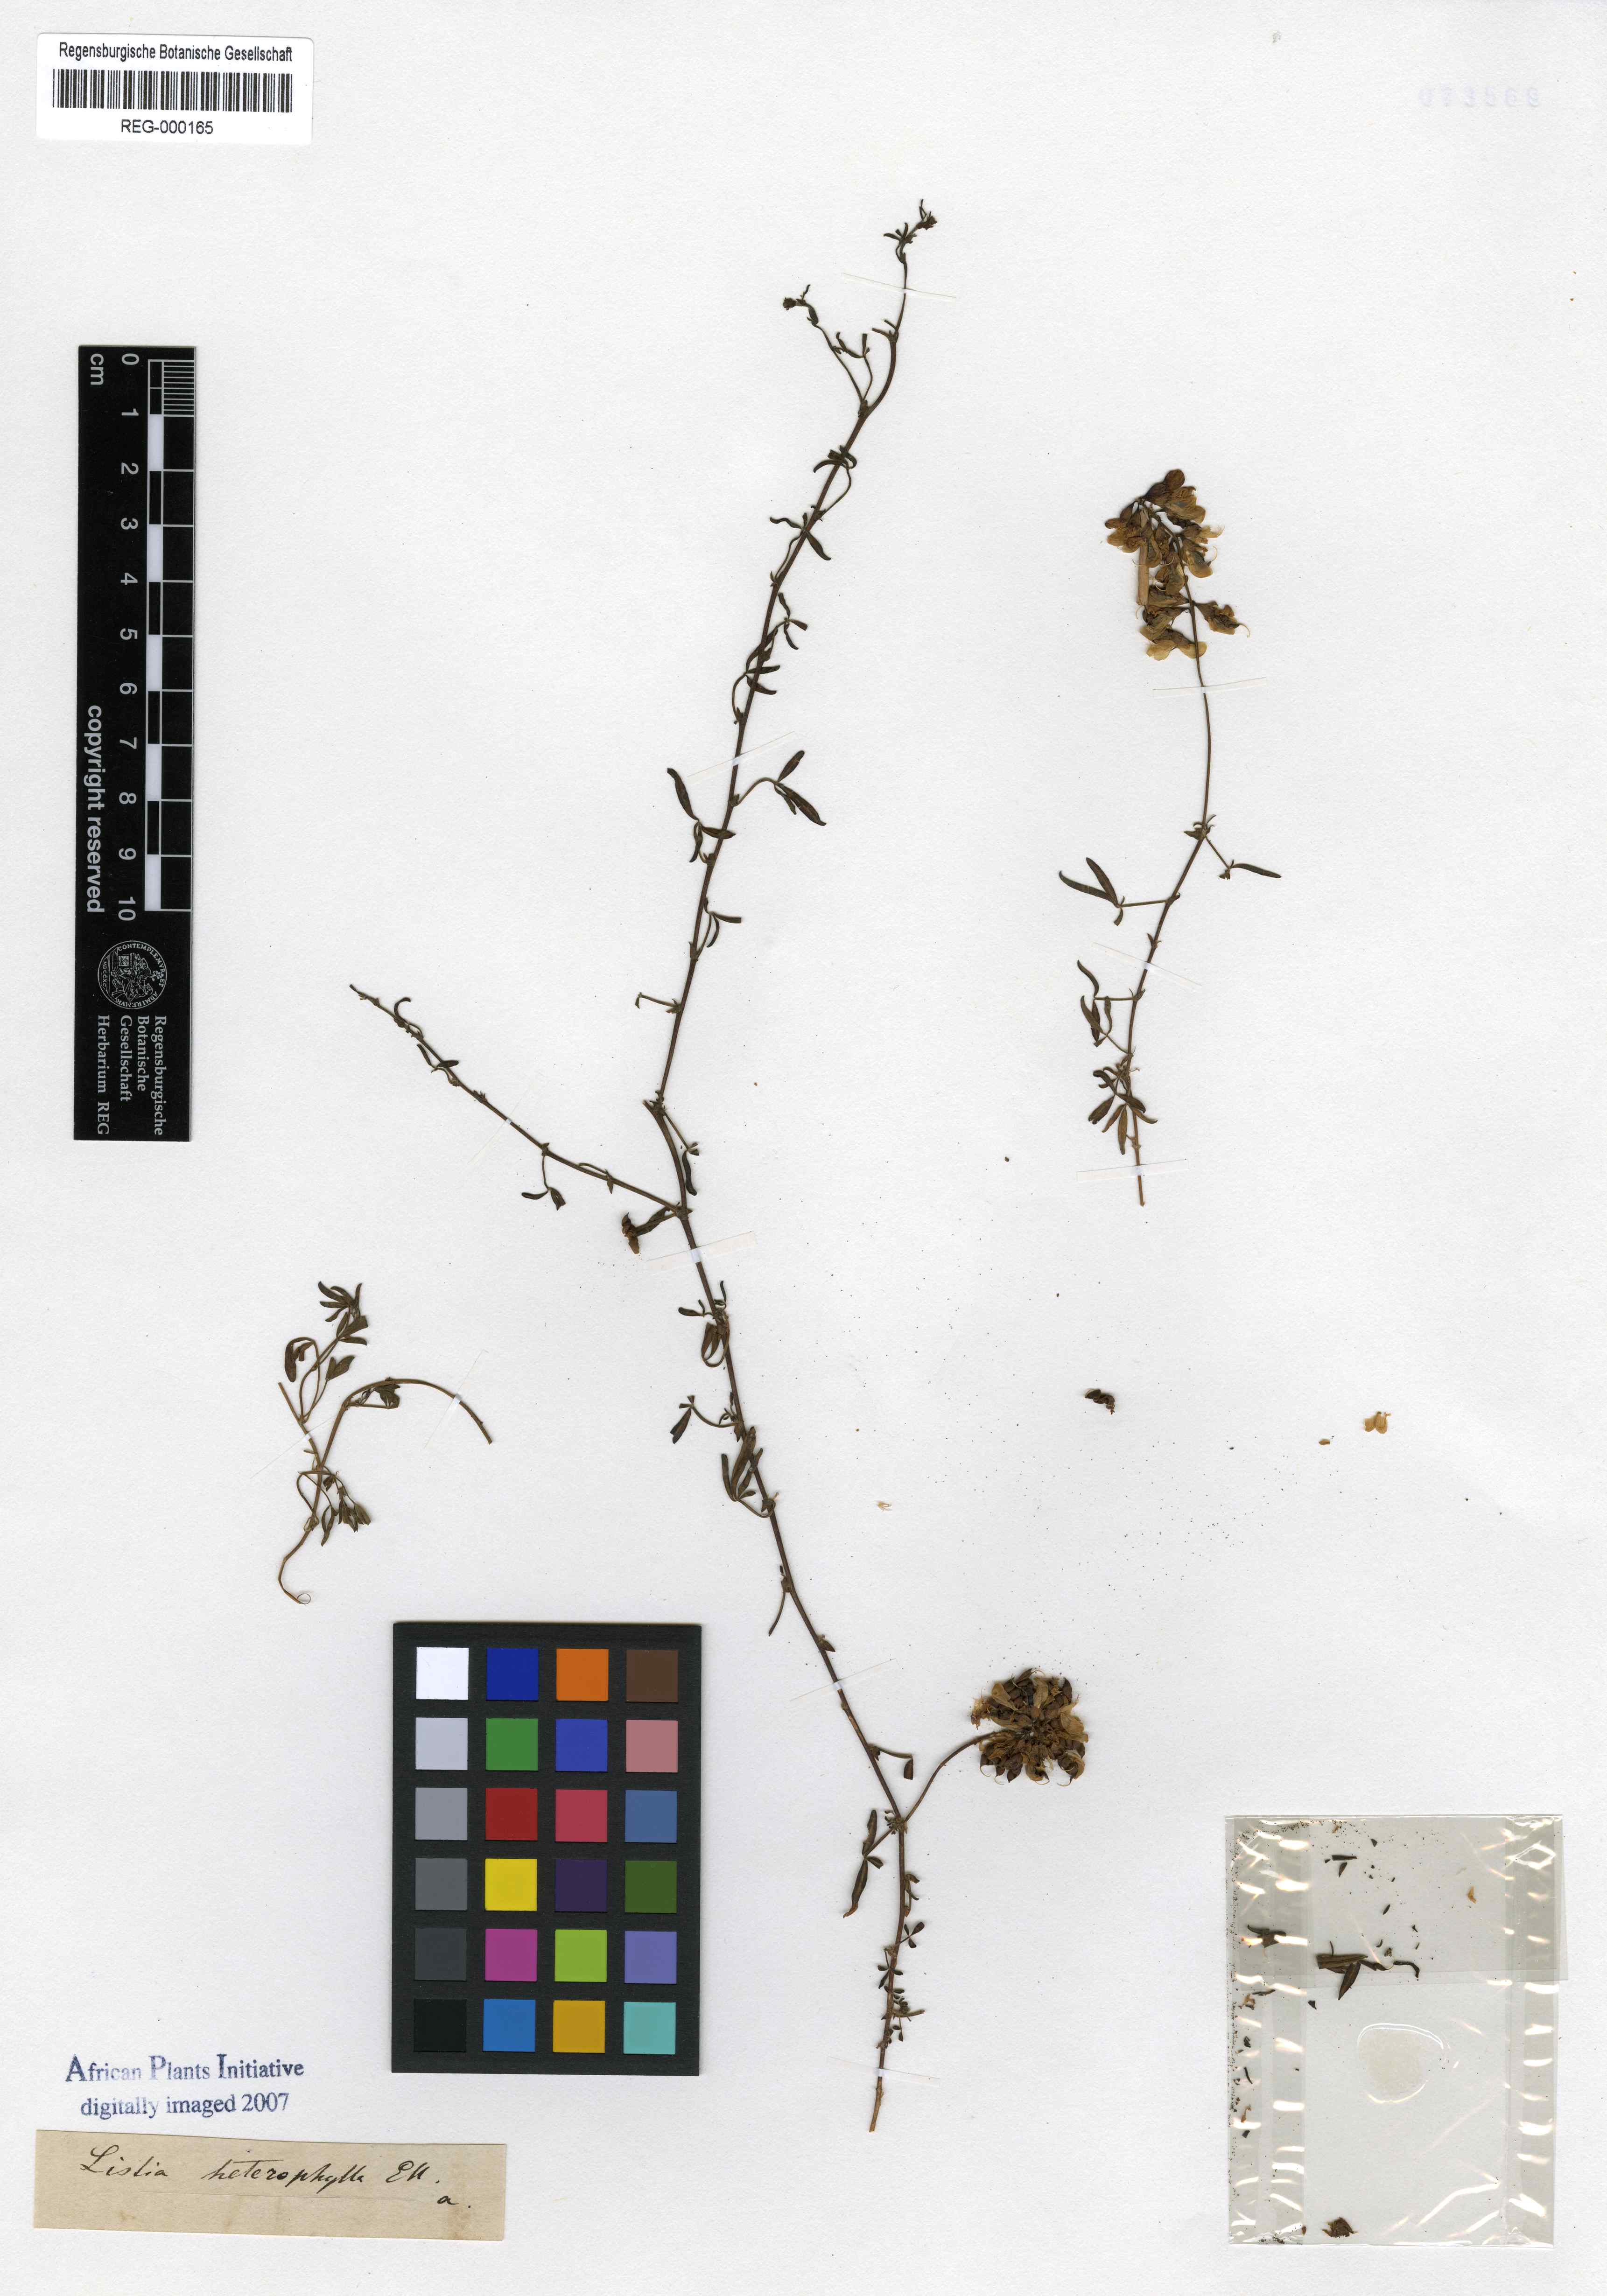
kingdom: Plantae
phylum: Tracheophyta
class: Magnoliopsida
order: Fabales
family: Fabaceae
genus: Listia
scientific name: Listia heterophylla
